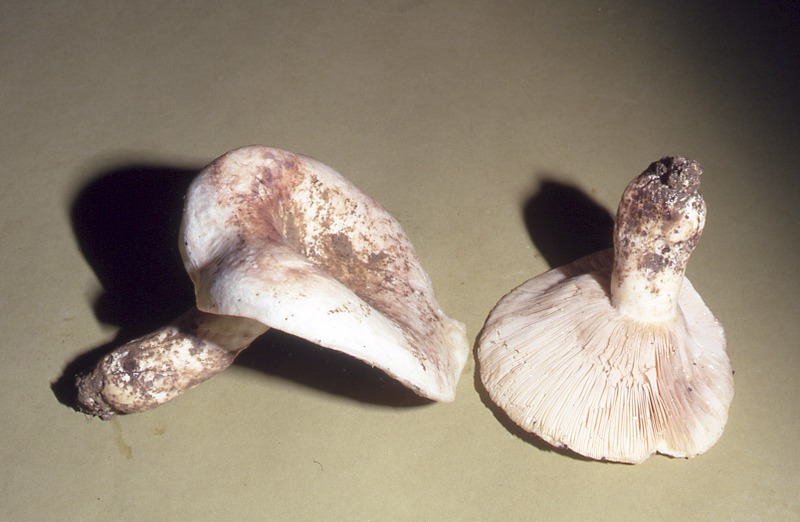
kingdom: Fungi
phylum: Basidiomycota
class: Agaricomycetes
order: Russulales
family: Russulaceae
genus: Lactarius
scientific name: Lactarius controversus
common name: Blushing milkcap
